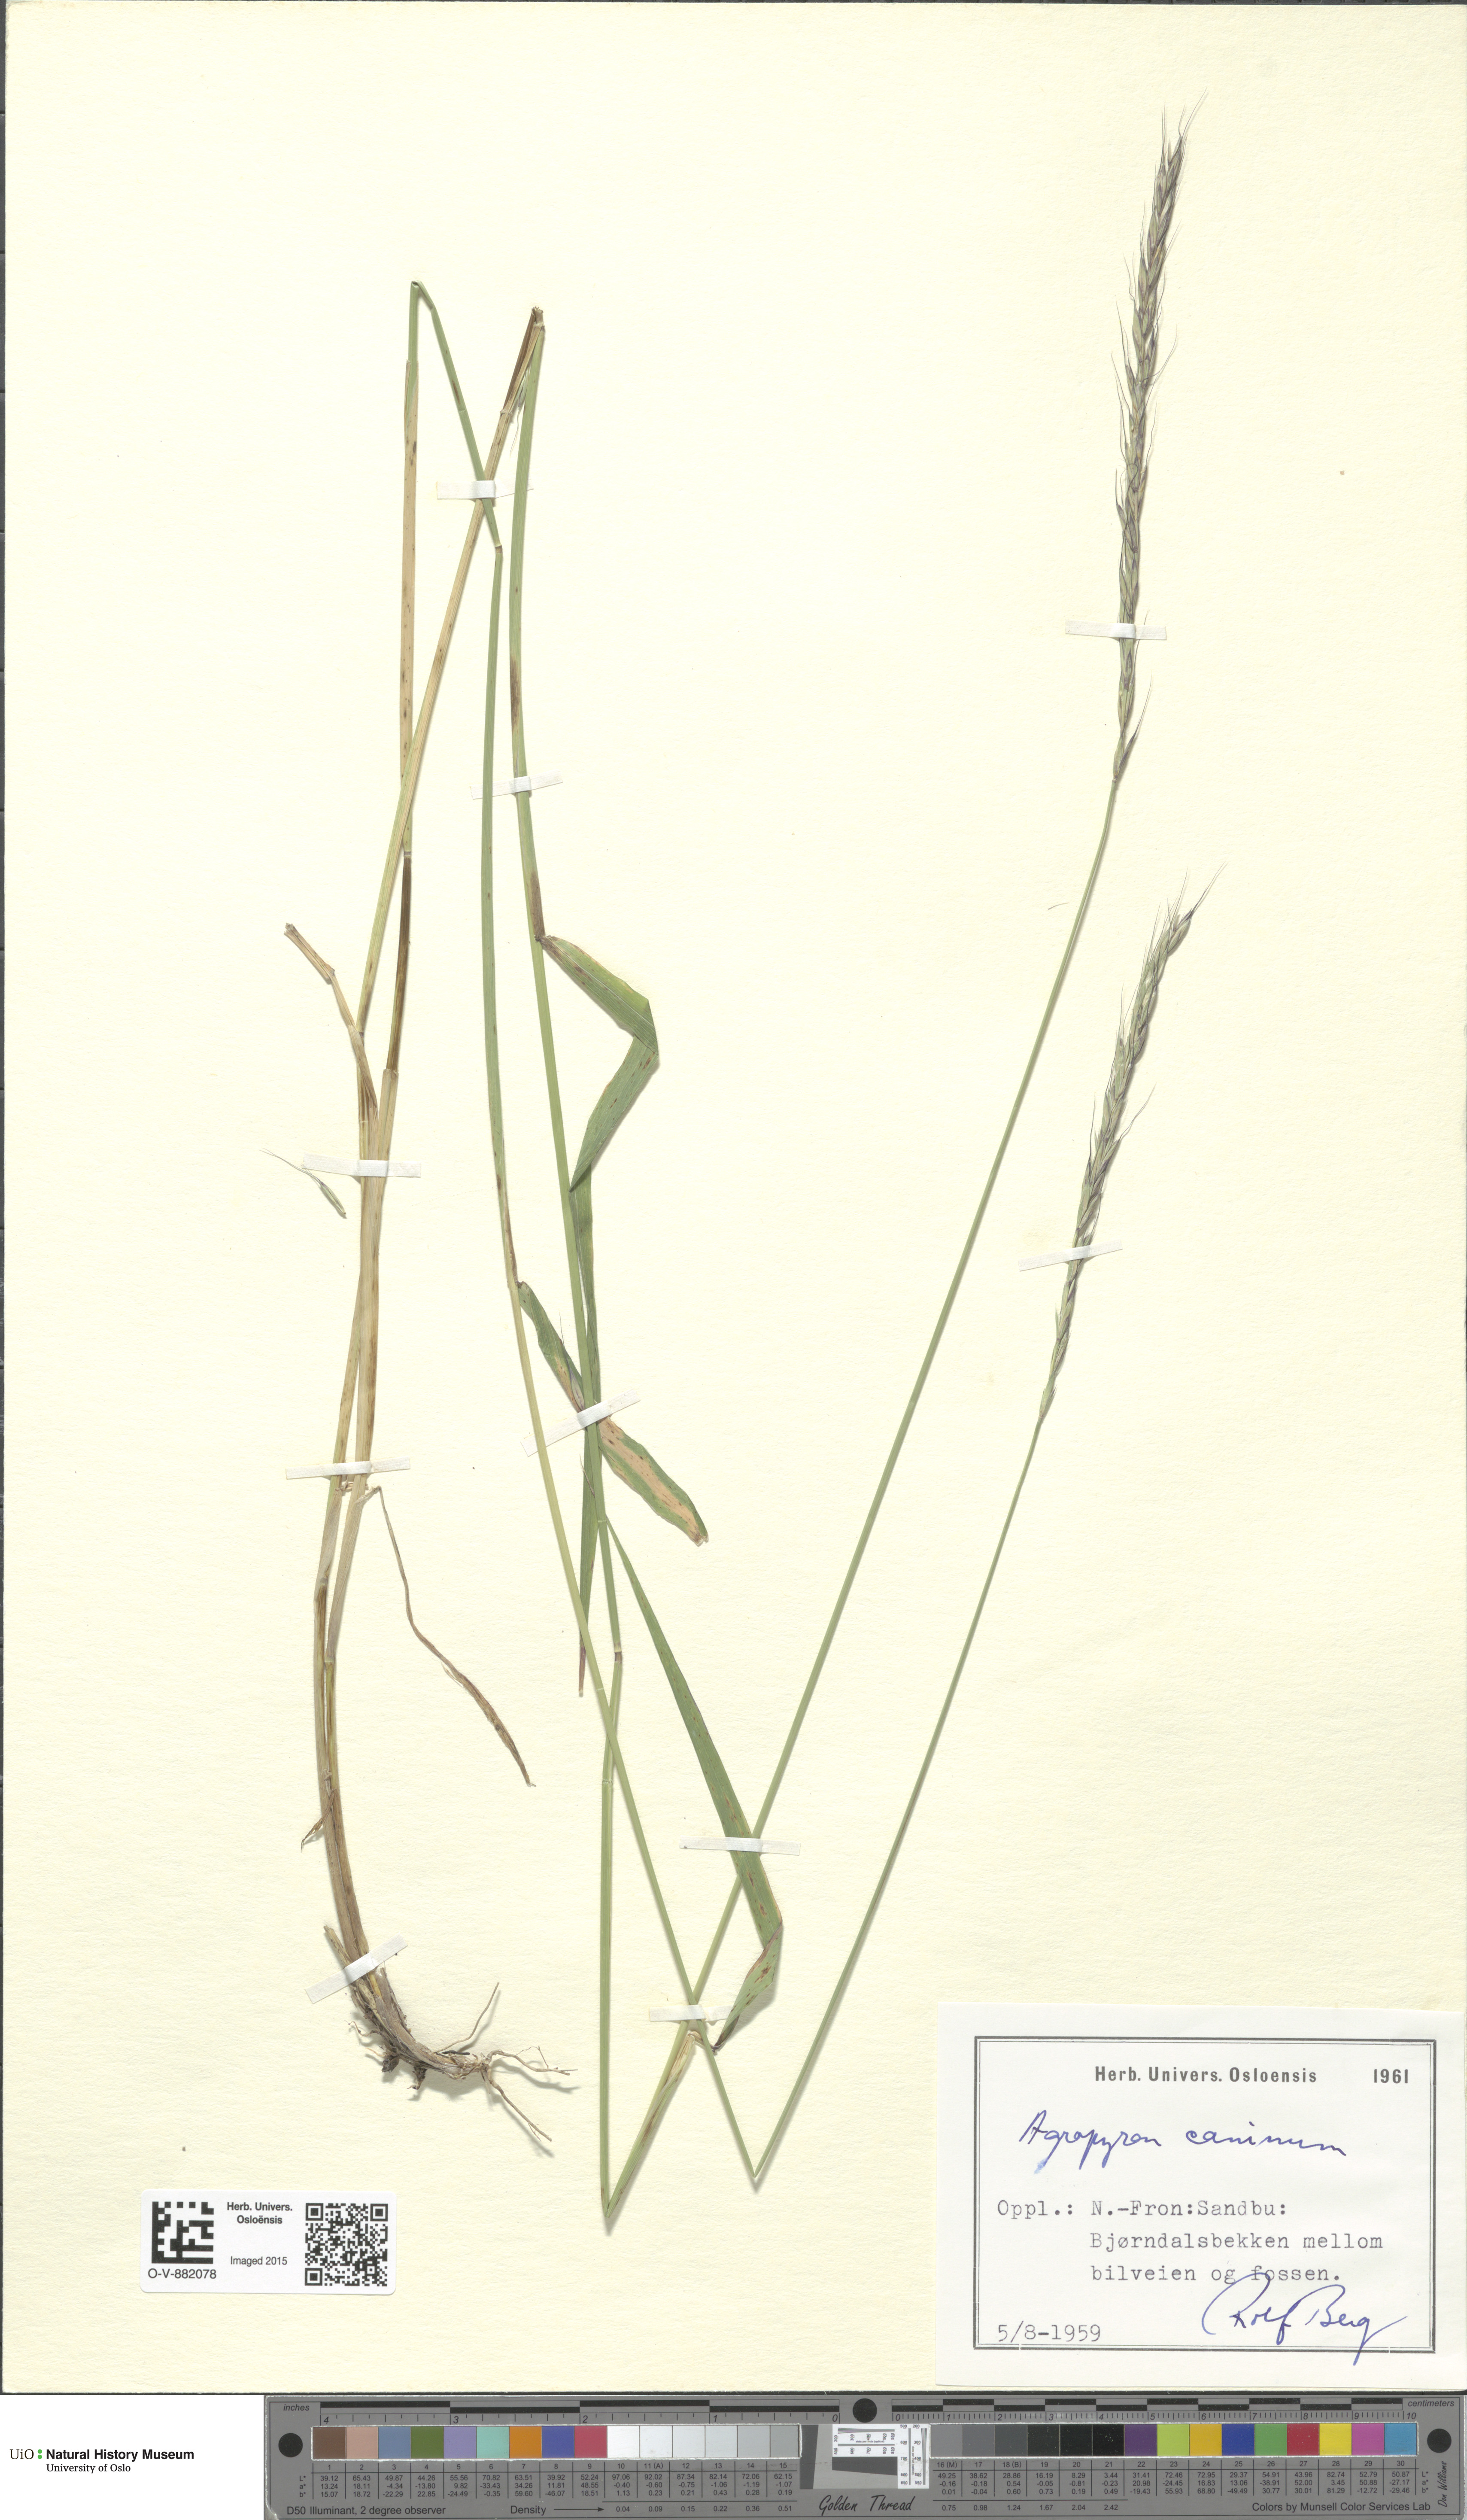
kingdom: Plantae
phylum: Tracheophyta
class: Liliopsida
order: Poales
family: Poaceae
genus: Elymus
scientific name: Elymus caninus
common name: Bearded couch
